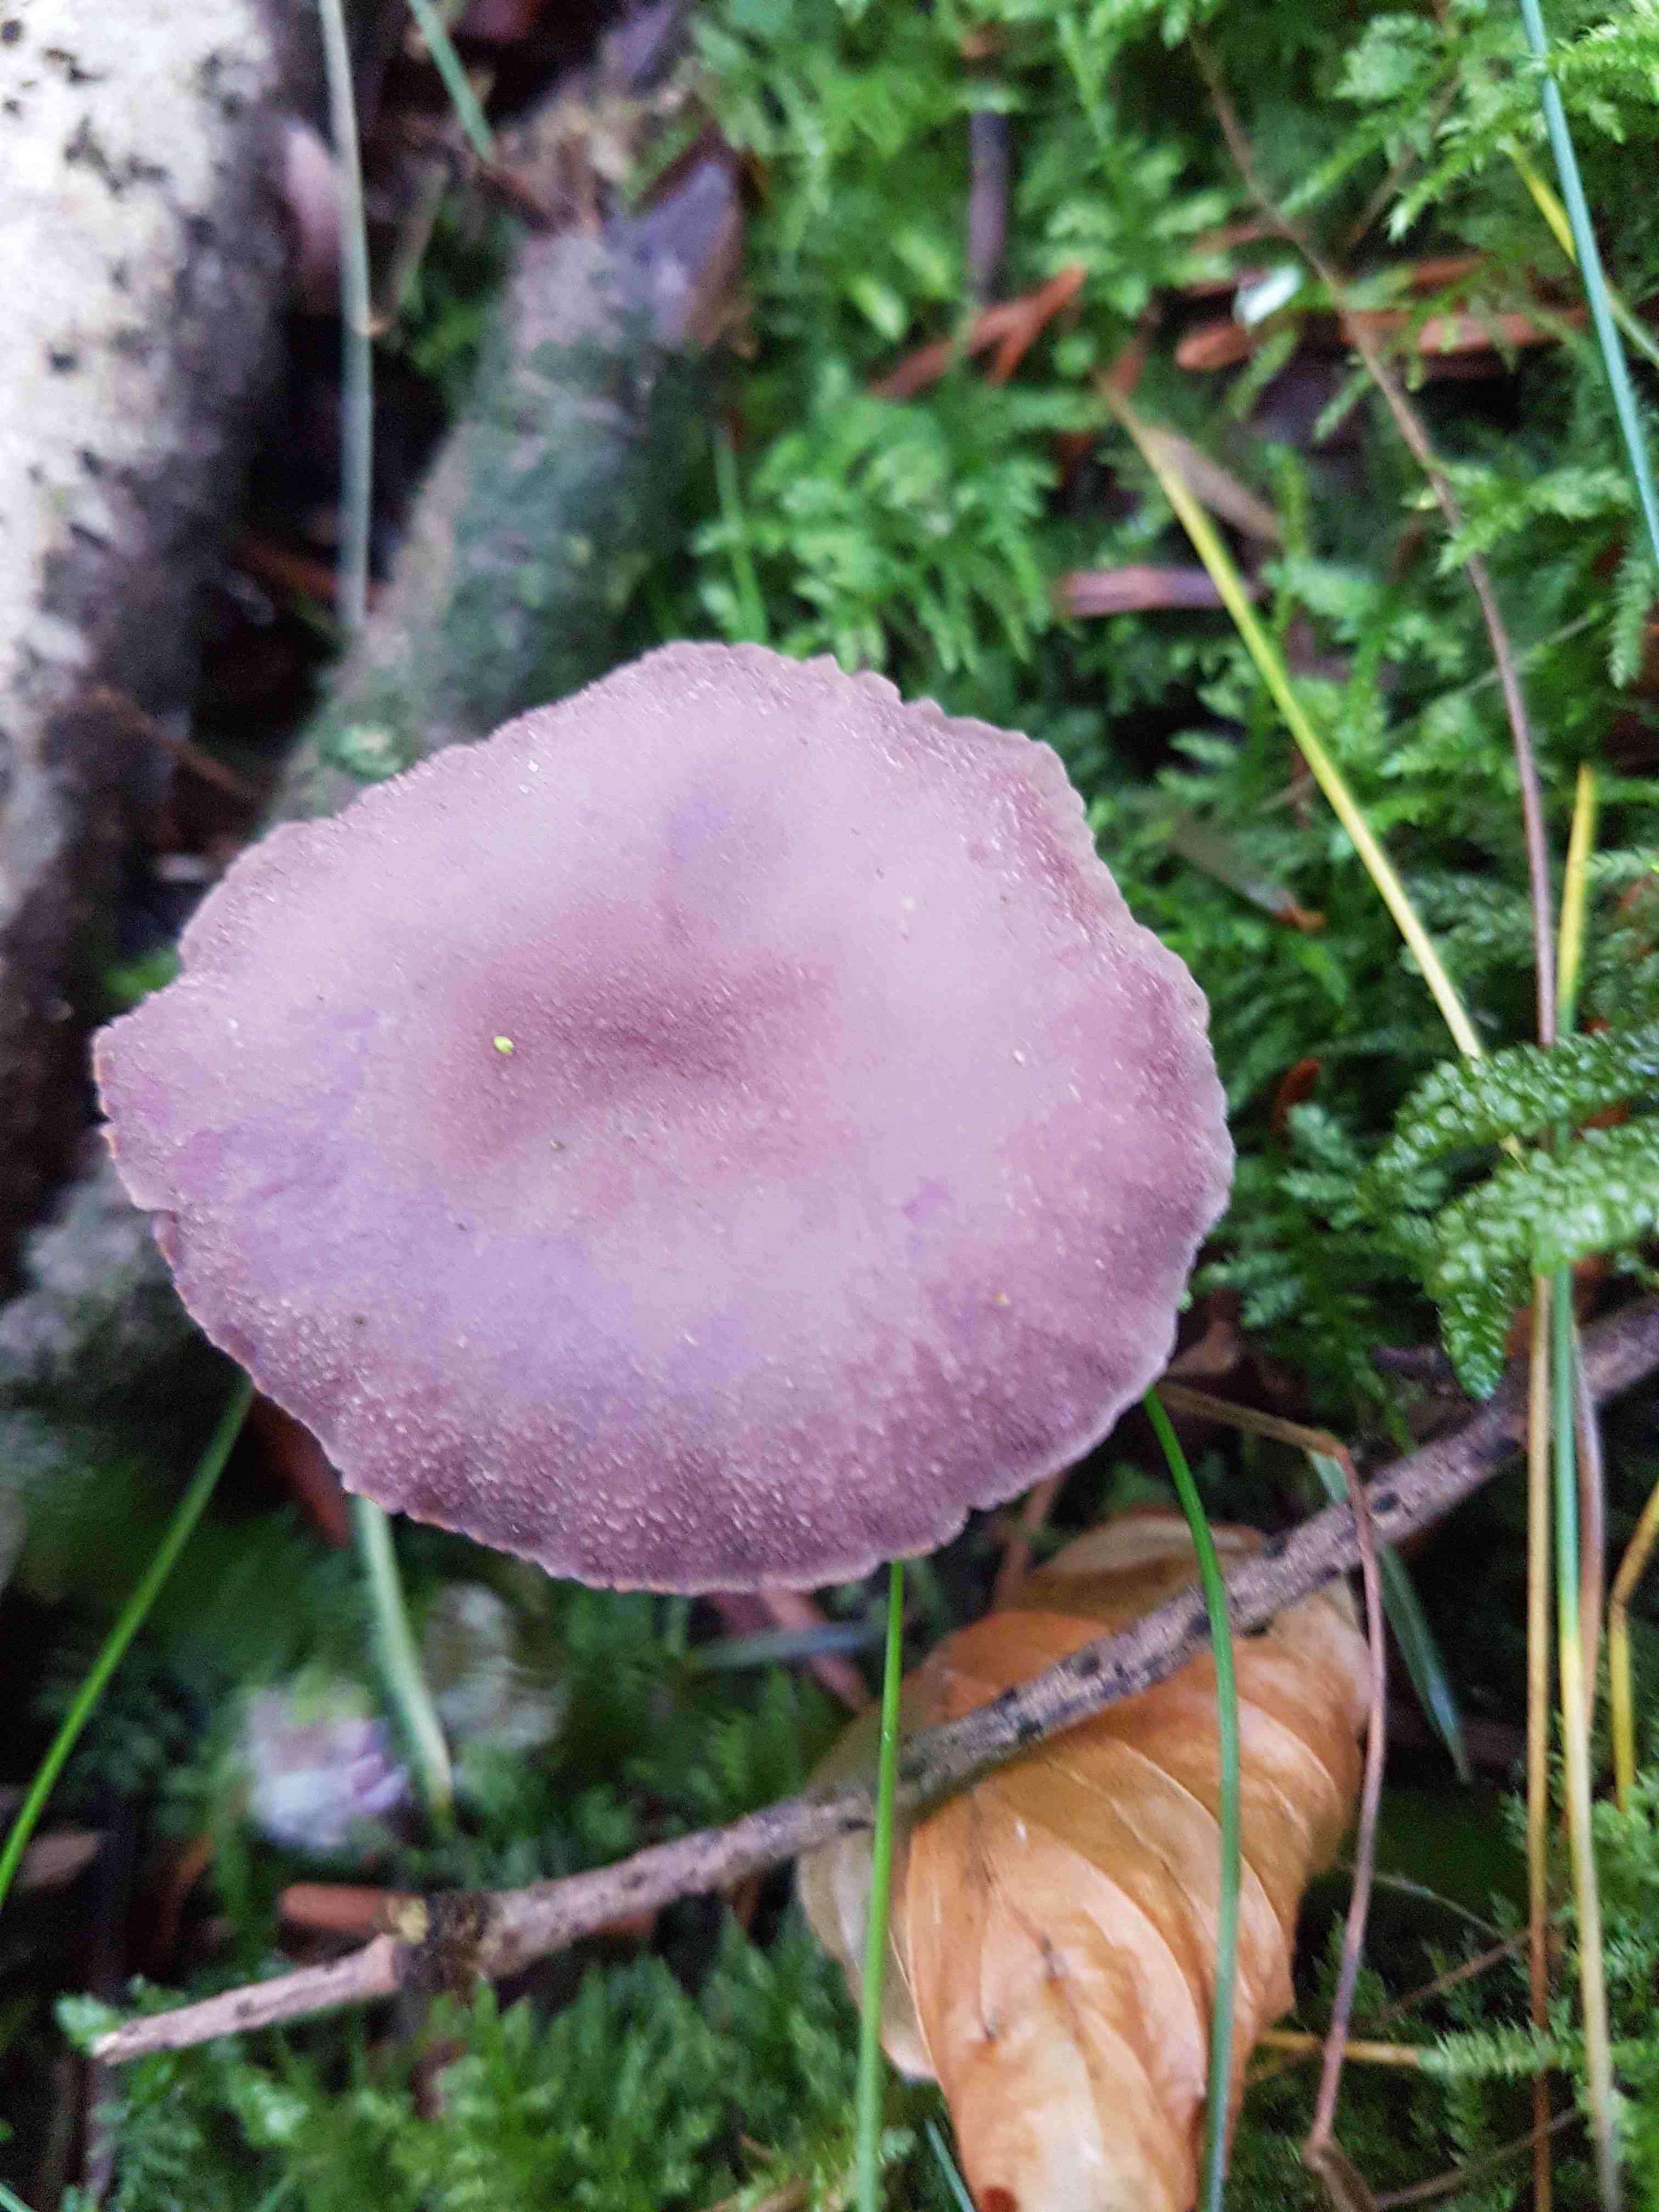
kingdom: Fungi
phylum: Basidiomycota
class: Agaricomycetes
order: Agaricales
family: Hydnangiaceae
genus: Laccaria
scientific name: Laccaria amethystina
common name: violet ametysthat
